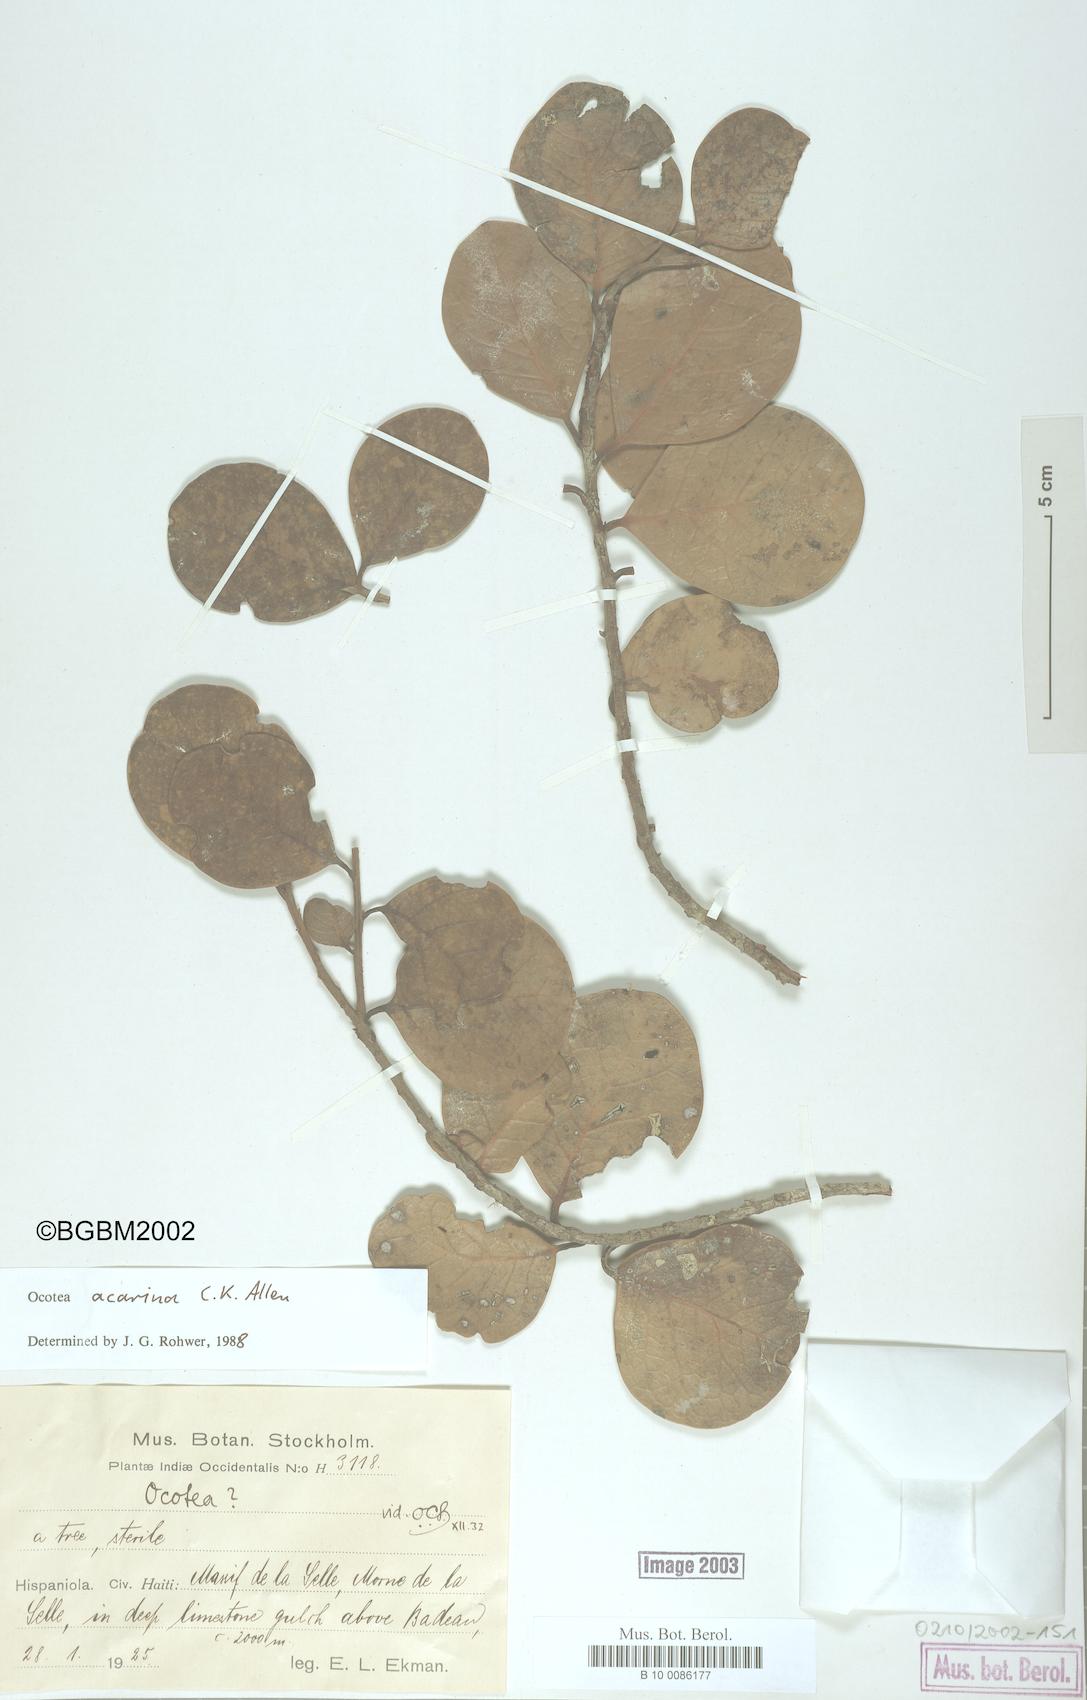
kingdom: Plantae
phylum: Tracheophyta
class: Magnoliopsida
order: Laurales
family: Lauraceae
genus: Ocotea
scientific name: Ocotea acarina
